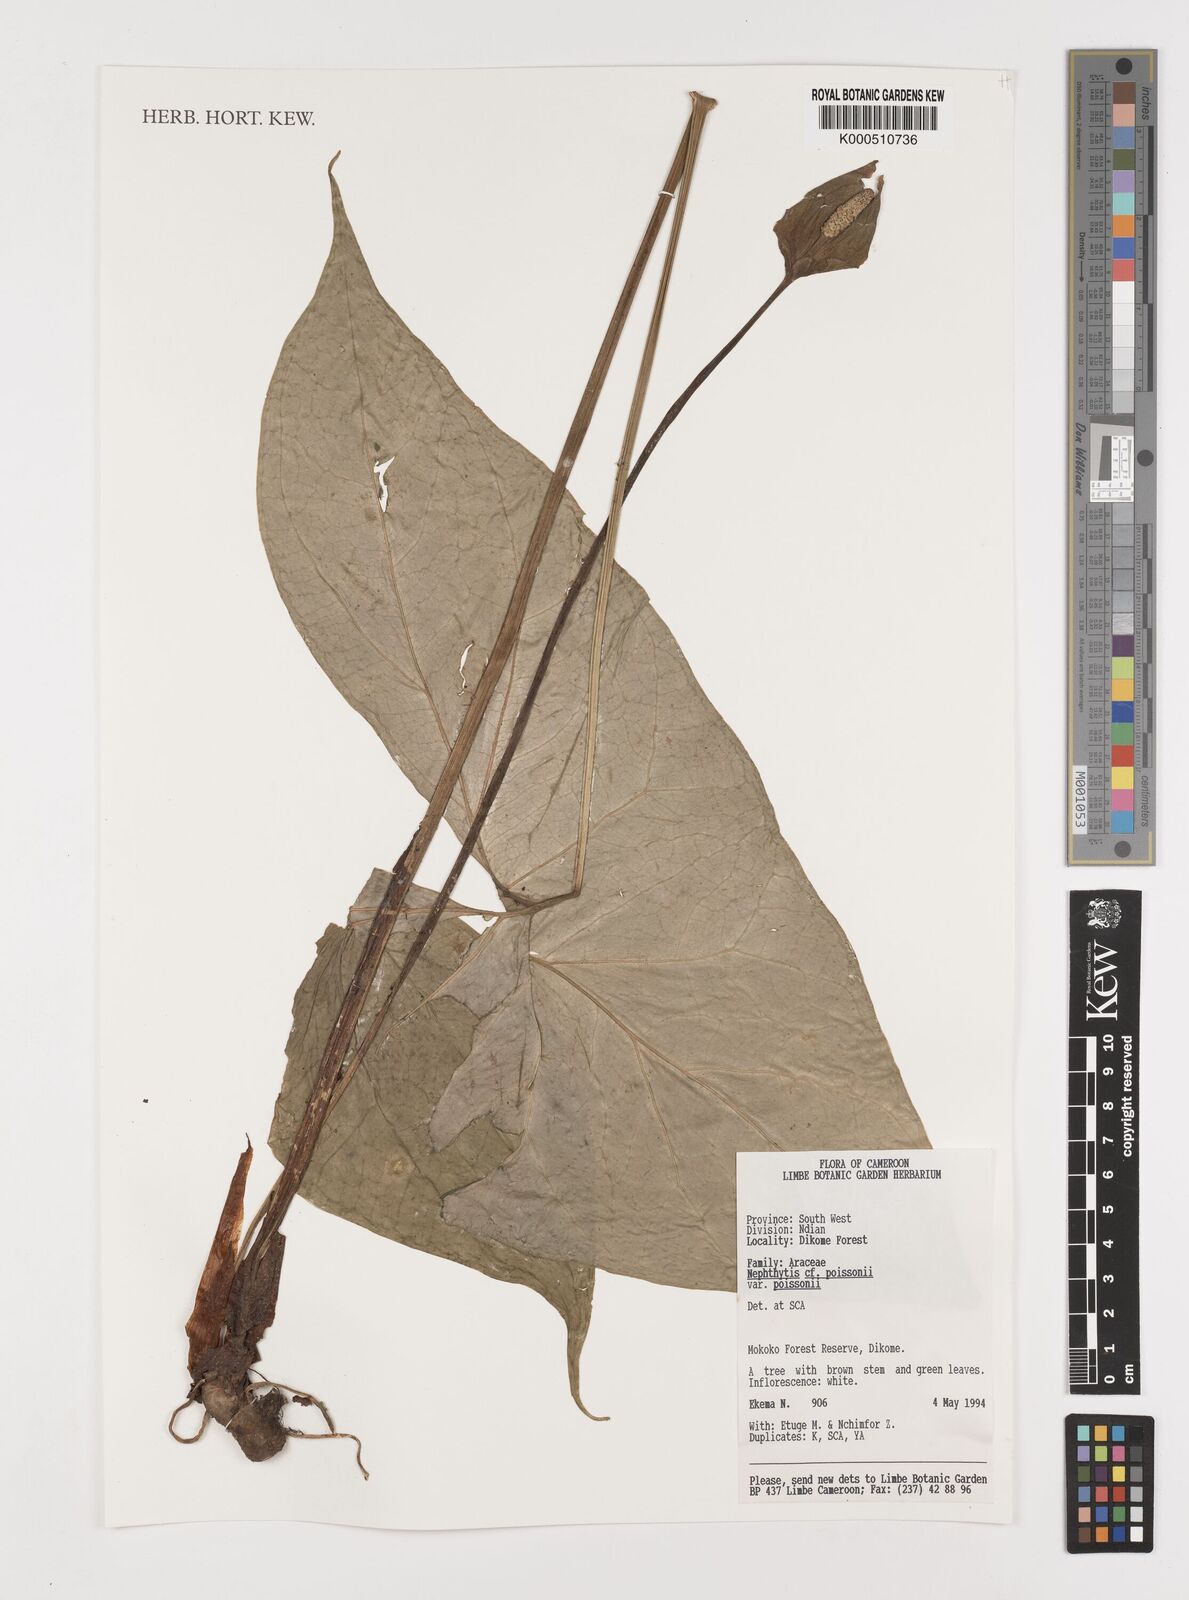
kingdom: Plantae
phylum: Tracheophyta
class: Liliopsida
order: Alismatales
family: Araceae
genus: Nephthytis
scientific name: Nephthytis poissonii
